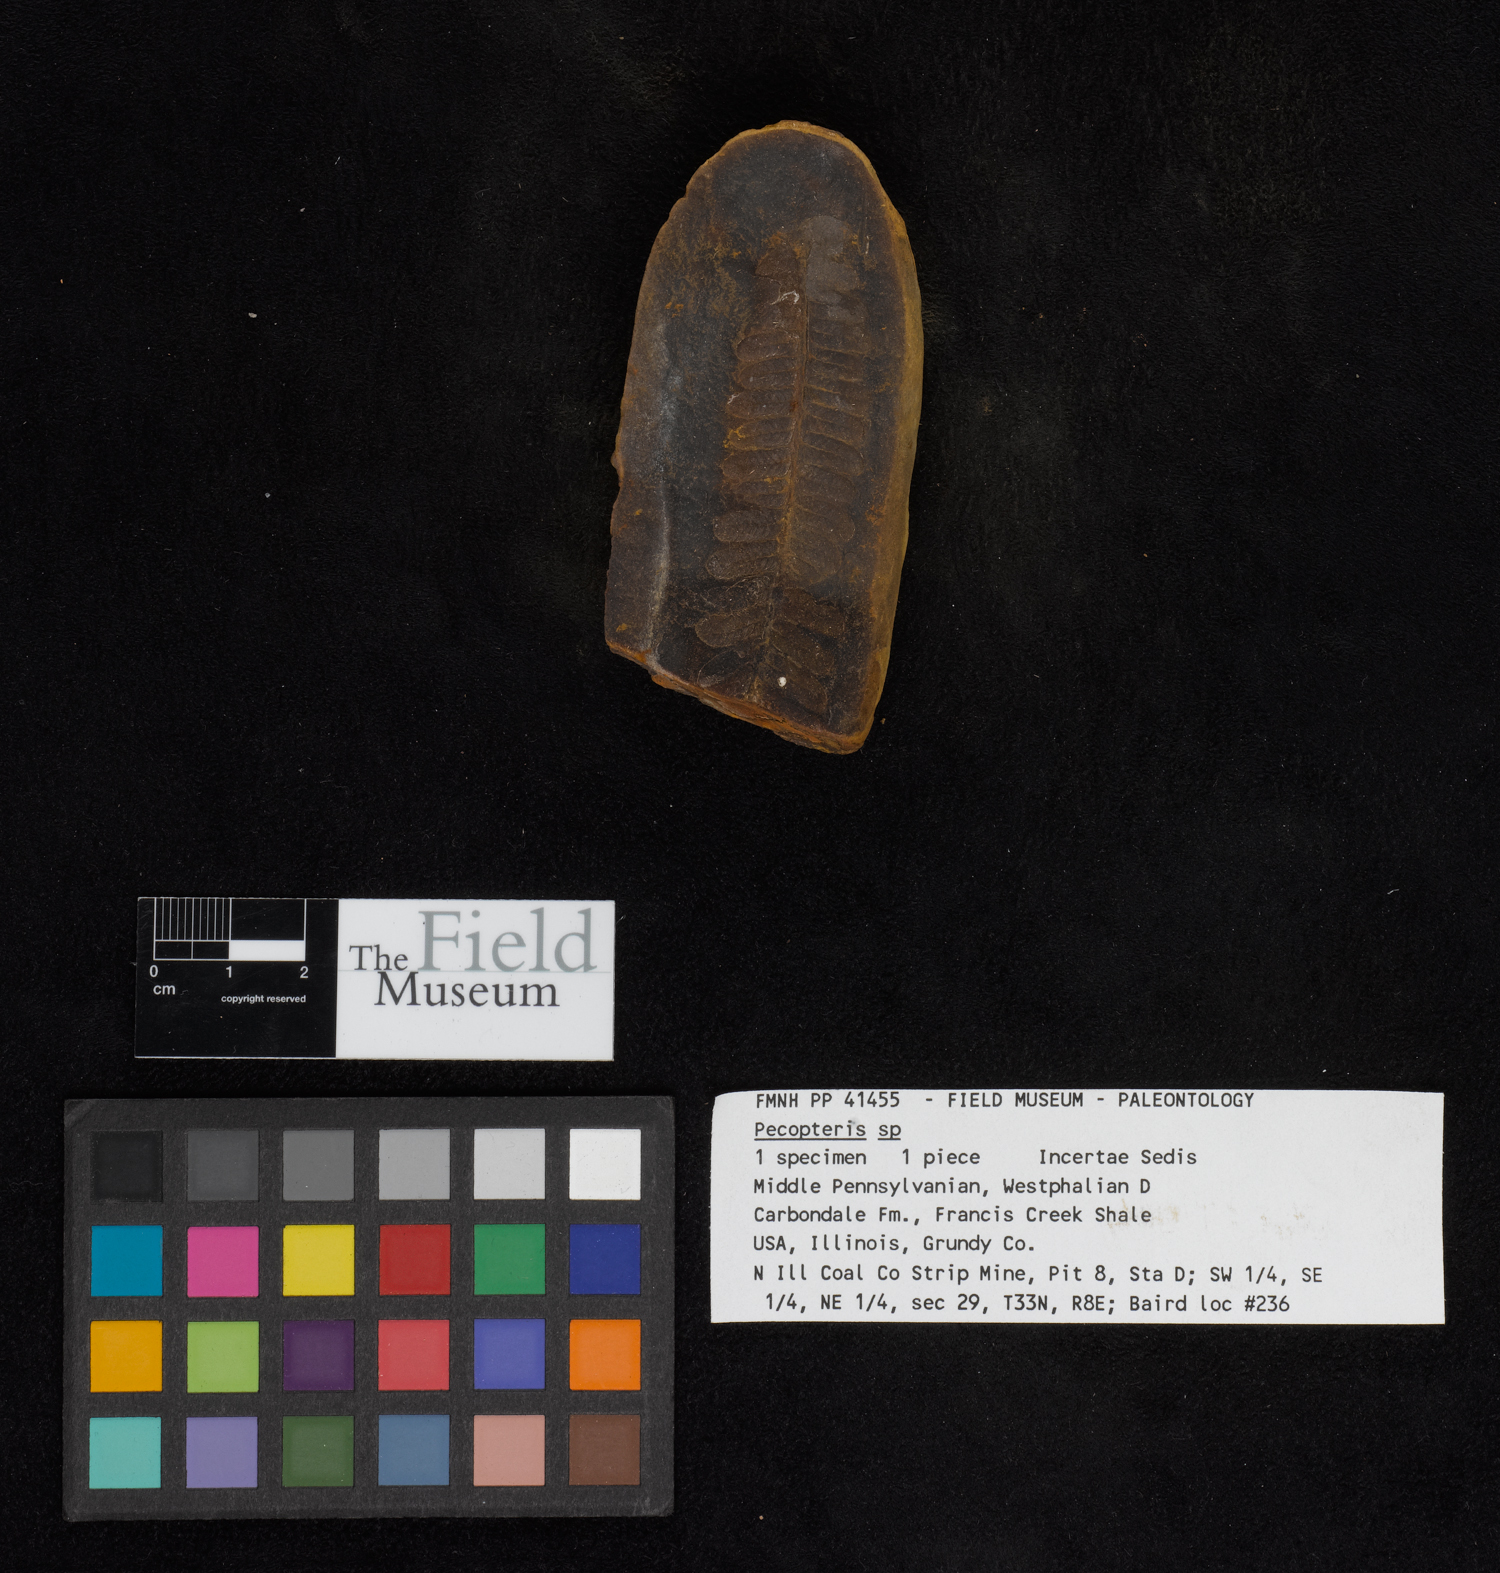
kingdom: Plantae
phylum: Tracheophyta
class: Polypodiopsida
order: Marattiales
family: Asterothecaceae
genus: Pecopteris
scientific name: Pecopteris
